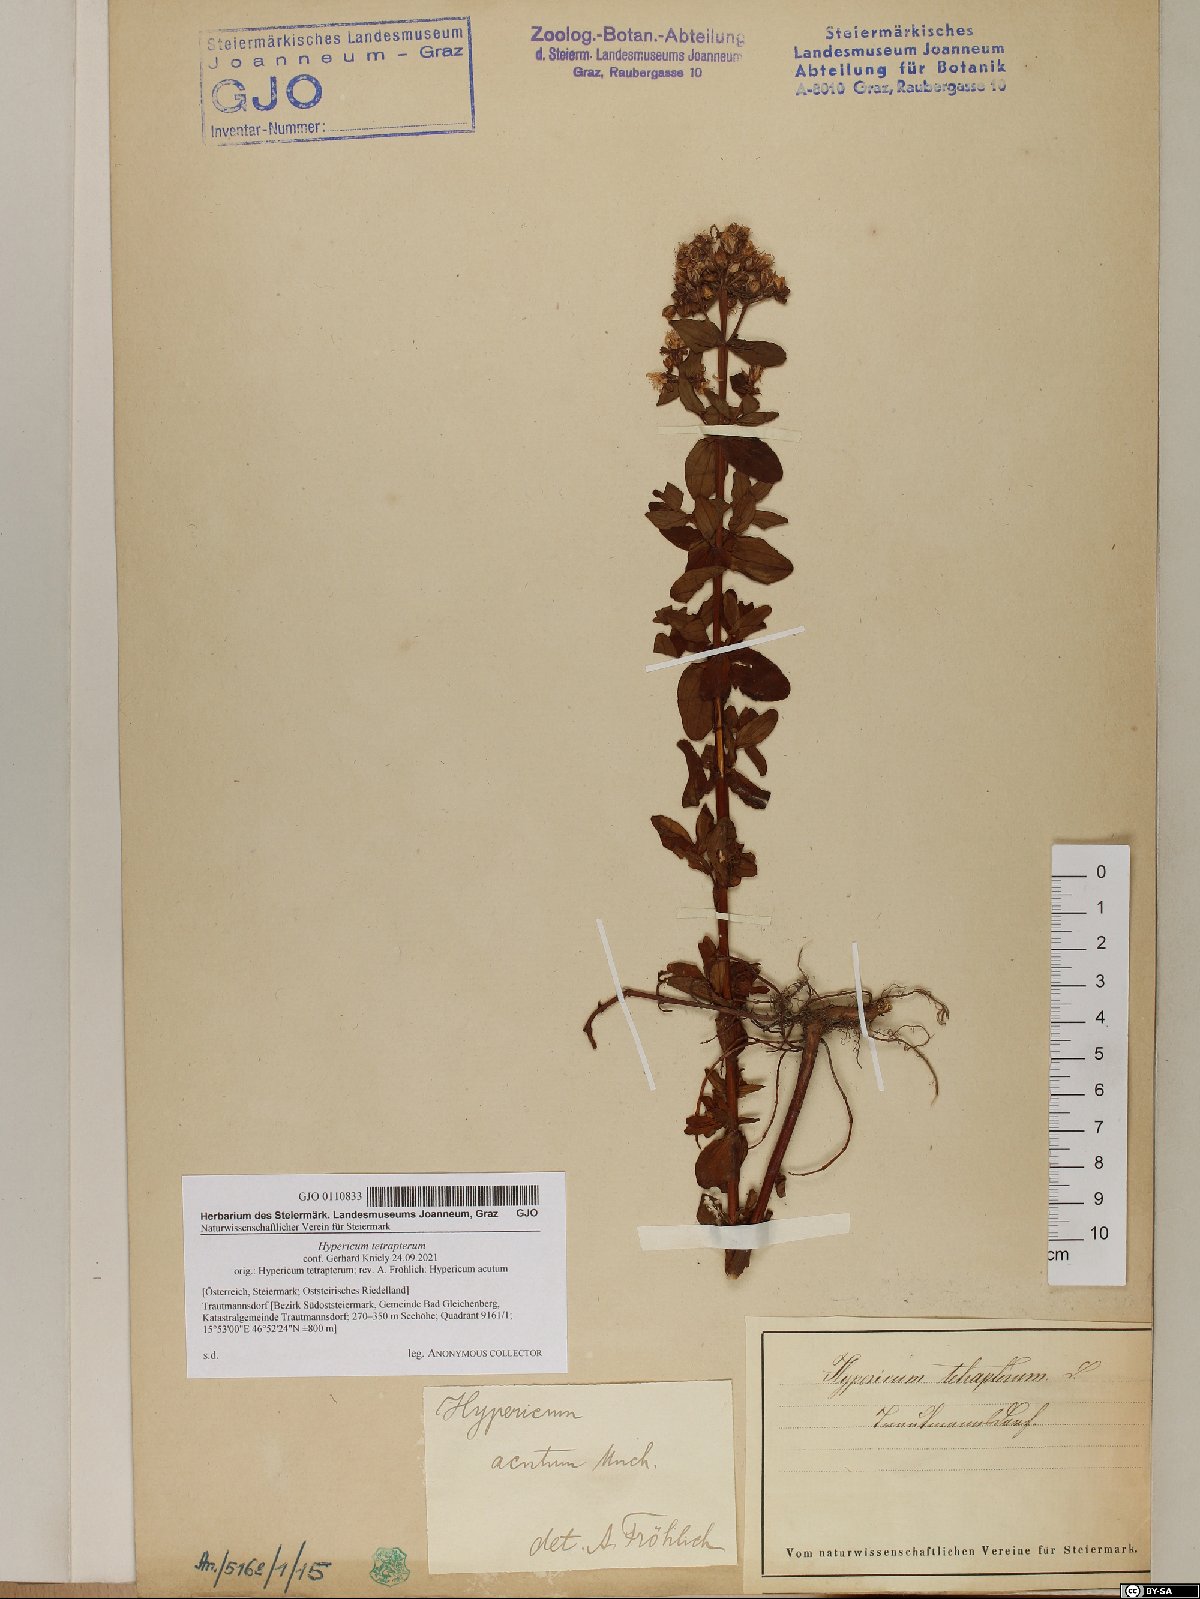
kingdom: Plantae
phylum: Tracheophyta
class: Magnoliopsida
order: Malpighiales
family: Hypericaceae
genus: Hypericum
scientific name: Hypericum tetrapterum
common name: Square-stalked st. john's-wort
